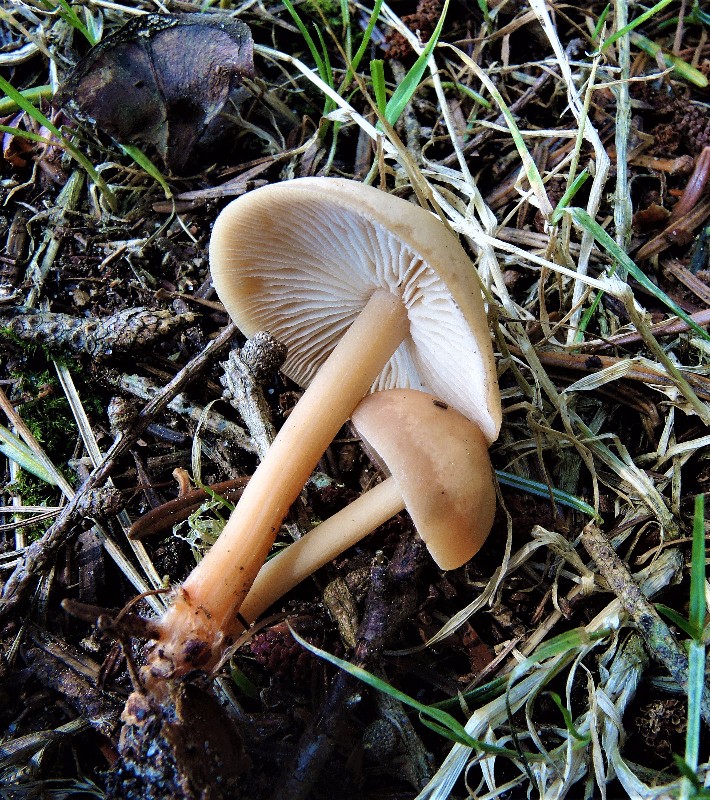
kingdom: Fungi
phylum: Basidiomycota
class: Agaricomycetes
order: Agaricales
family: Omphalotaceae
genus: Gymnopus
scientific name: Gymnopus dryophilus
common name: løv-fladhat
